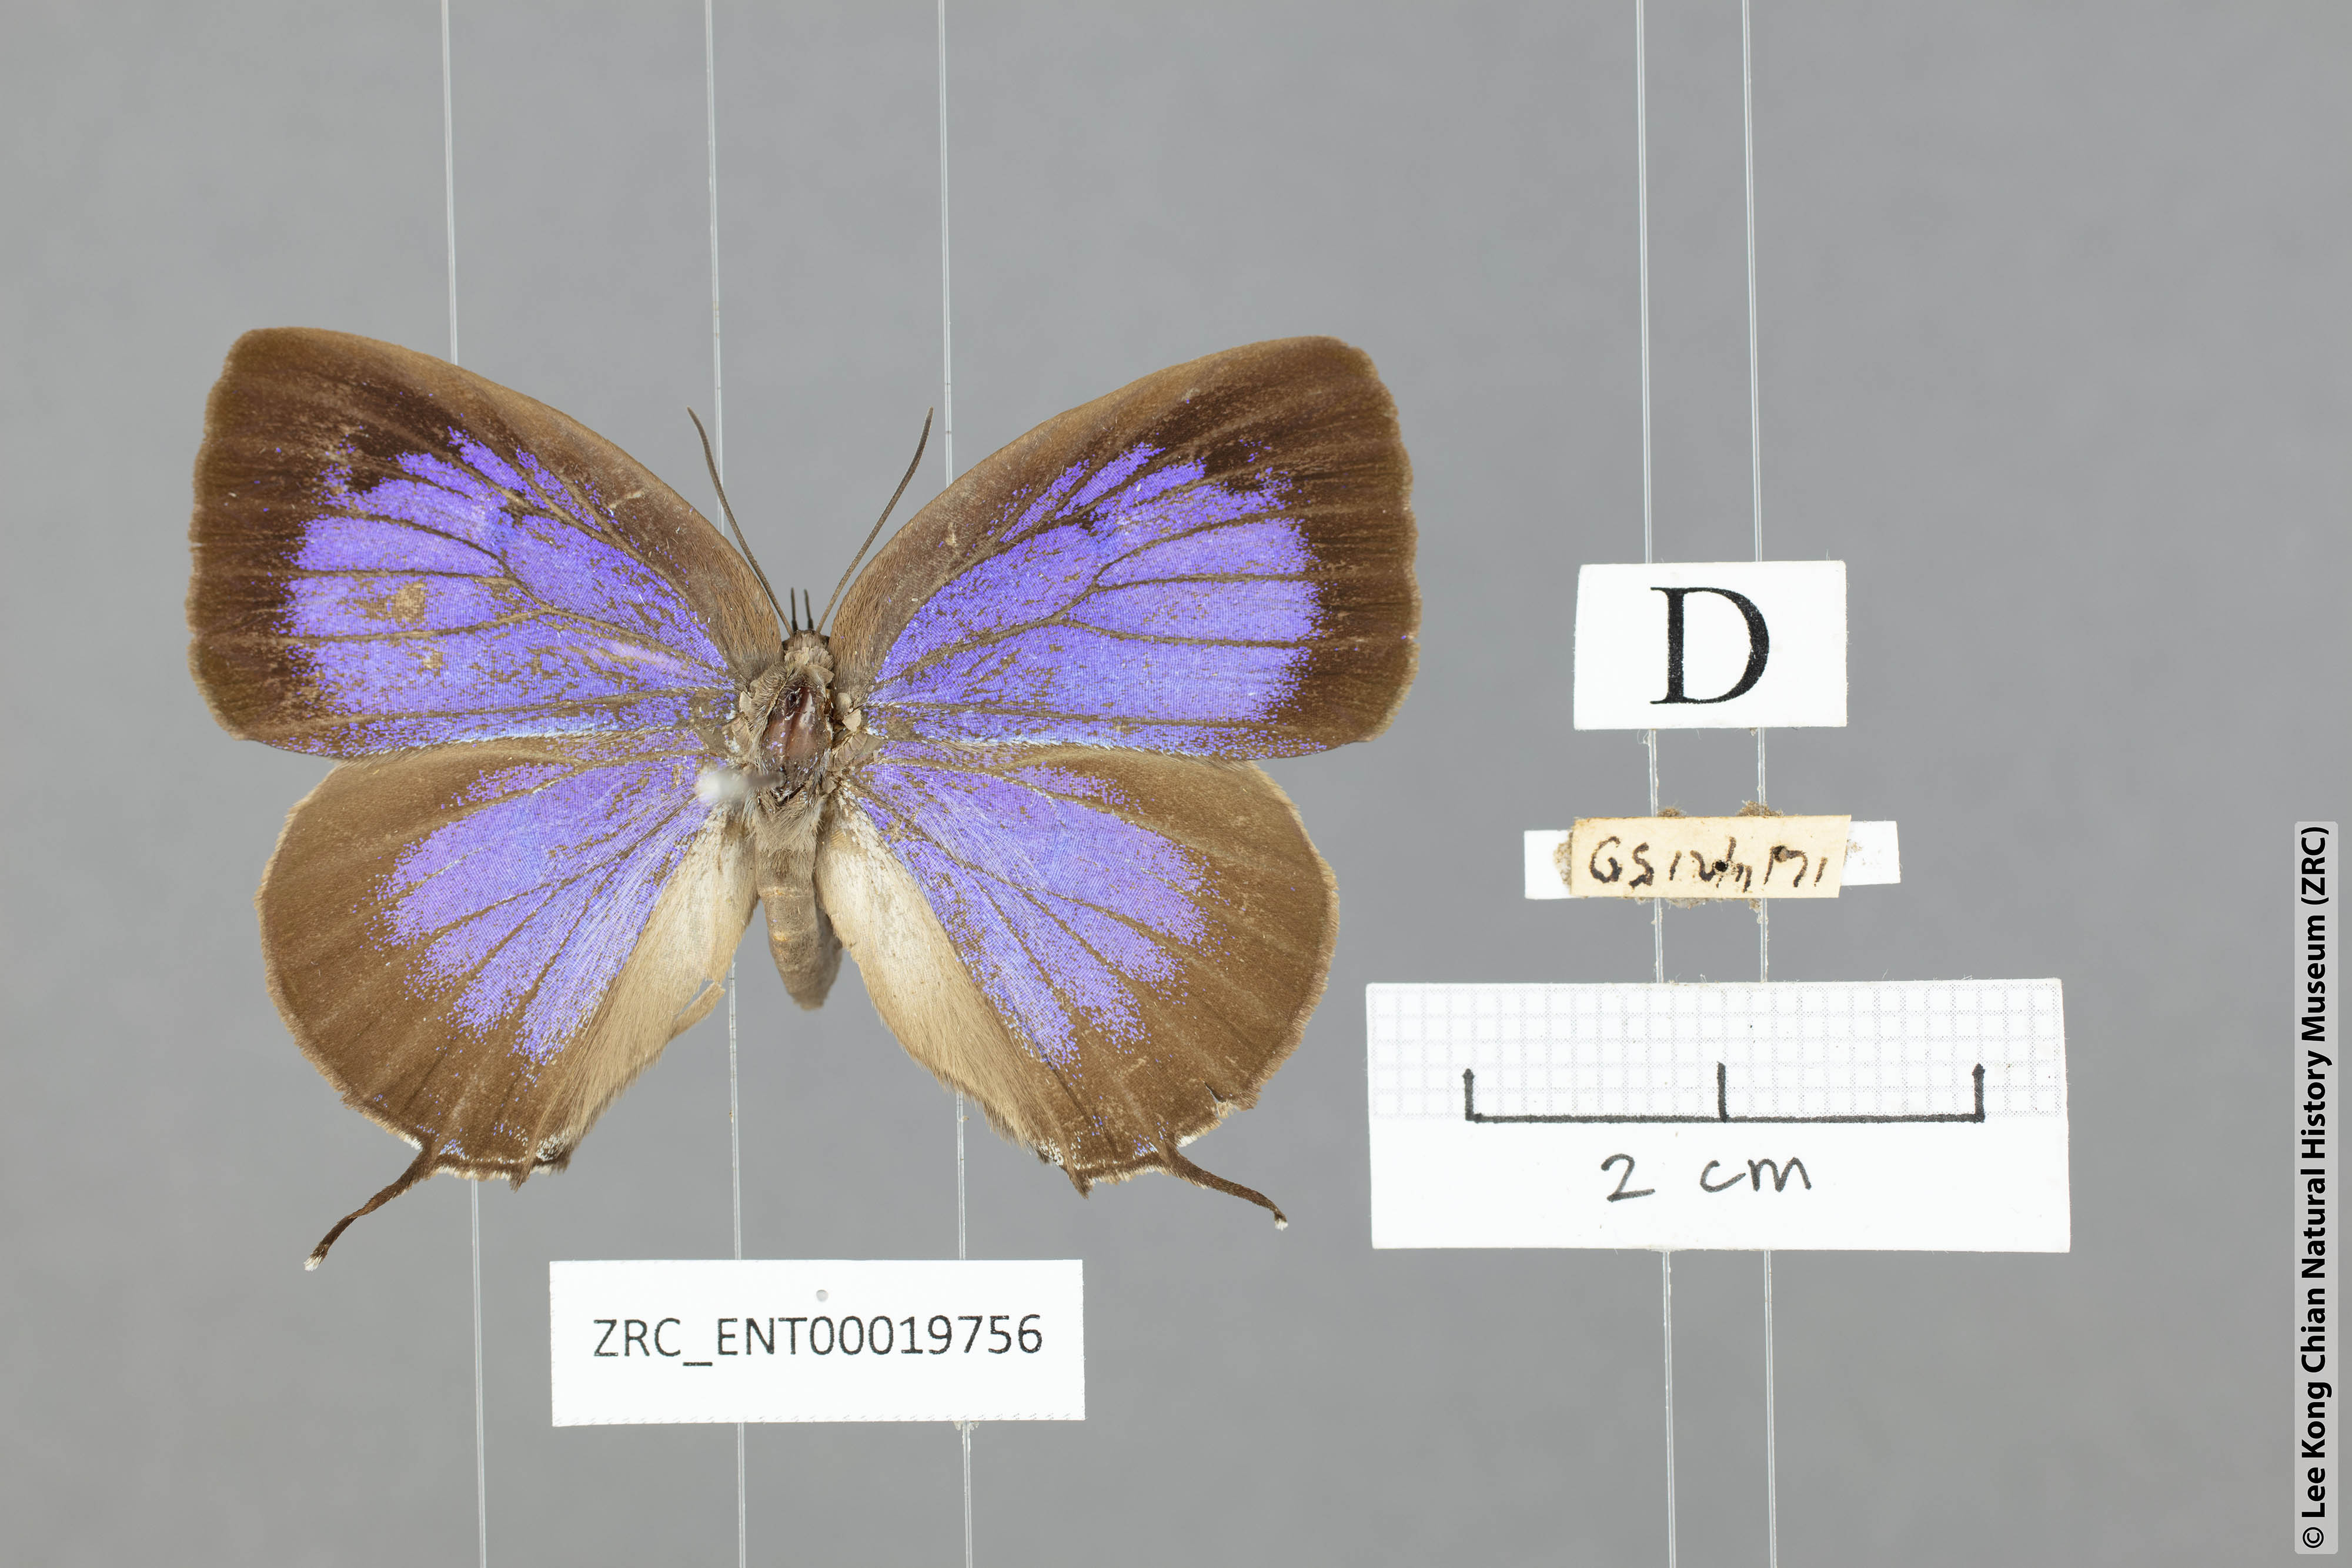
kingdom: Animalia
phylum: Arthropoda
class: Insecta
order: Lepidoptera
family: Lycaenidae
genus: Arhopala
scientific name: Arhopala opalina
